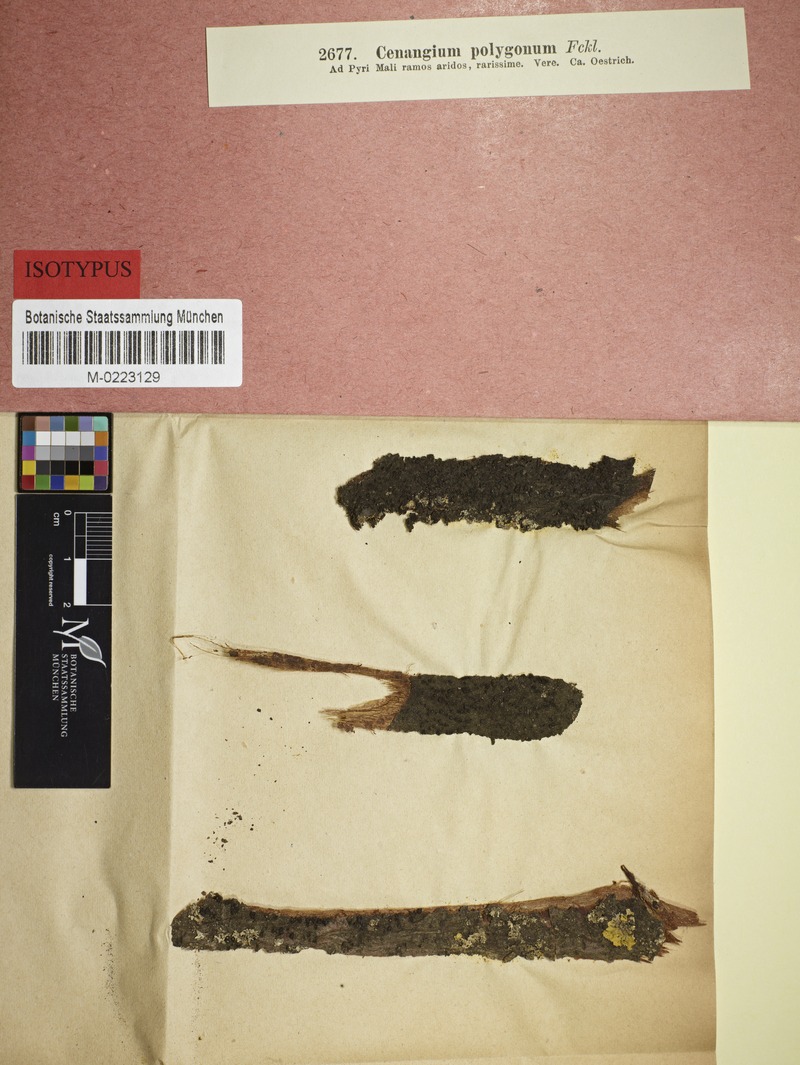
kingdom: Fungi
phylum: Ascomycota
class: Leotiomycetes
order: Helotiales
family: Dermateaceae
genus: Pezicula
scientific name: Pezicula polygona
